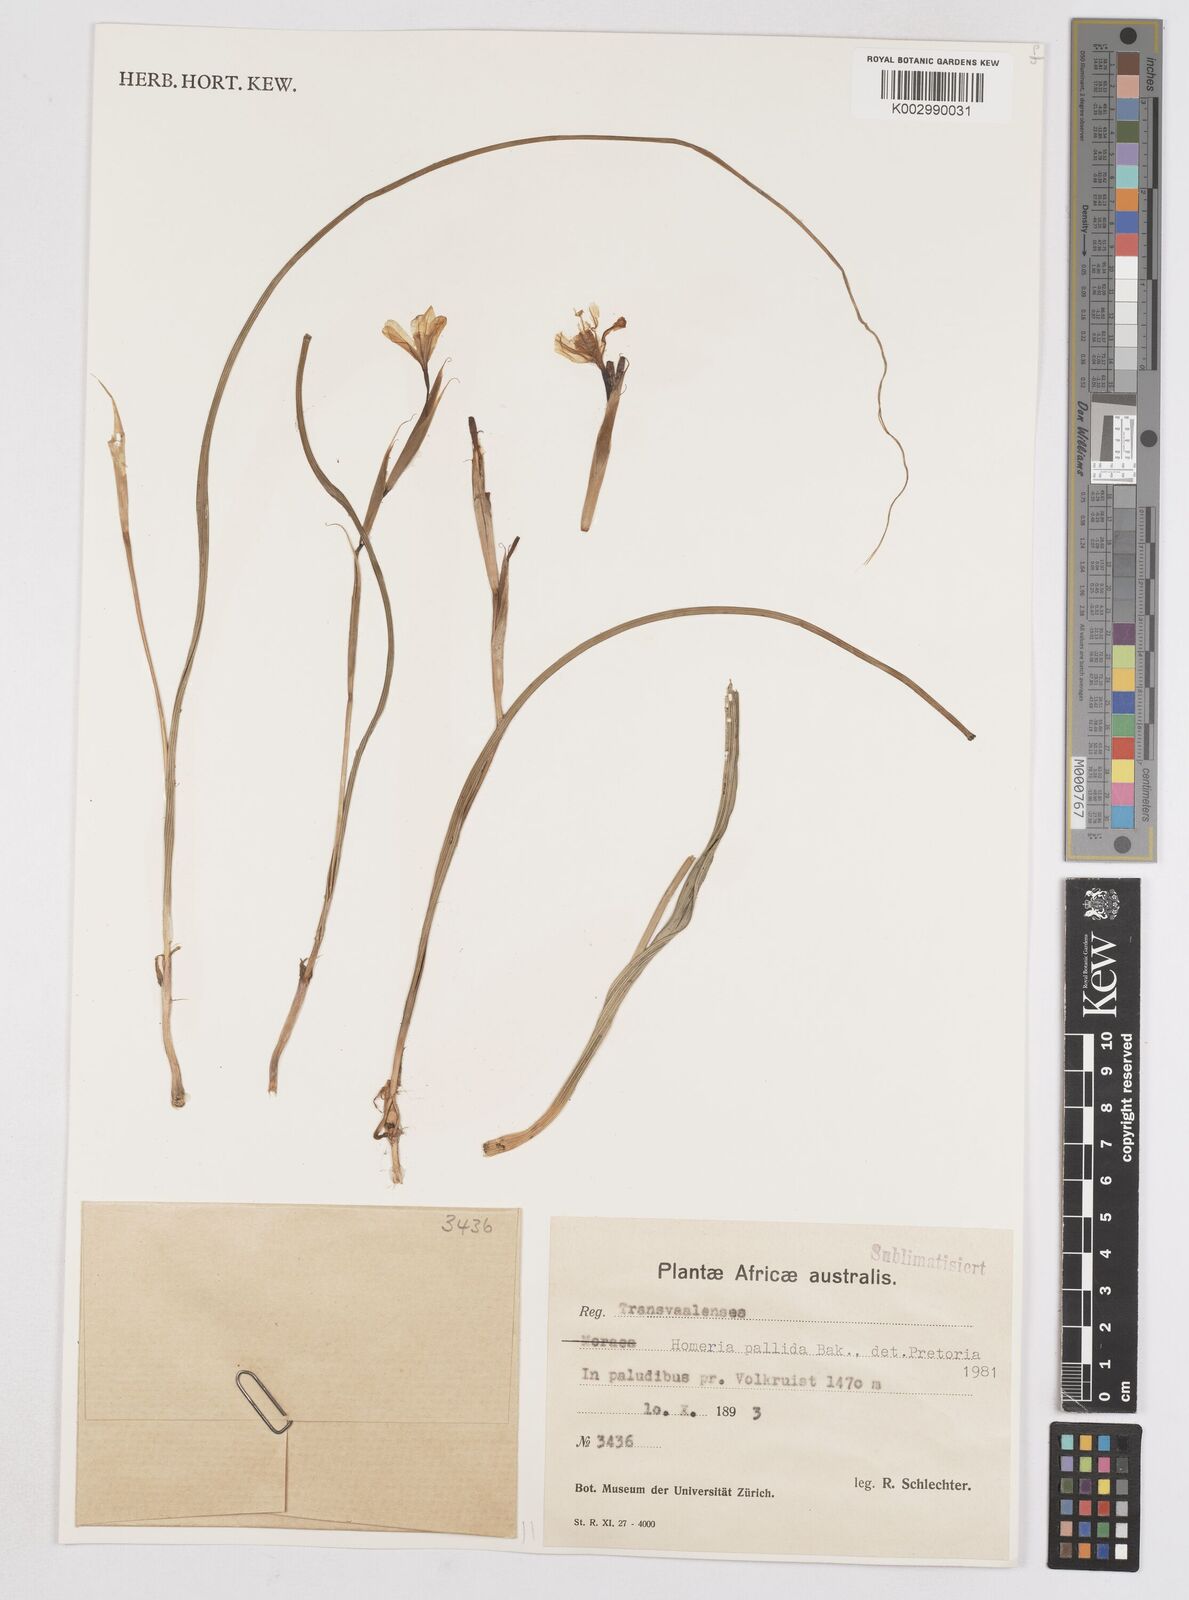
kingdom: Plantae
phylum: Tracheophyta
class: Liliopsida
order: Asparagales
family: Iridaceae
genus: Moraea
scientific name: Moraea pallida
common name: Yellow tulp
